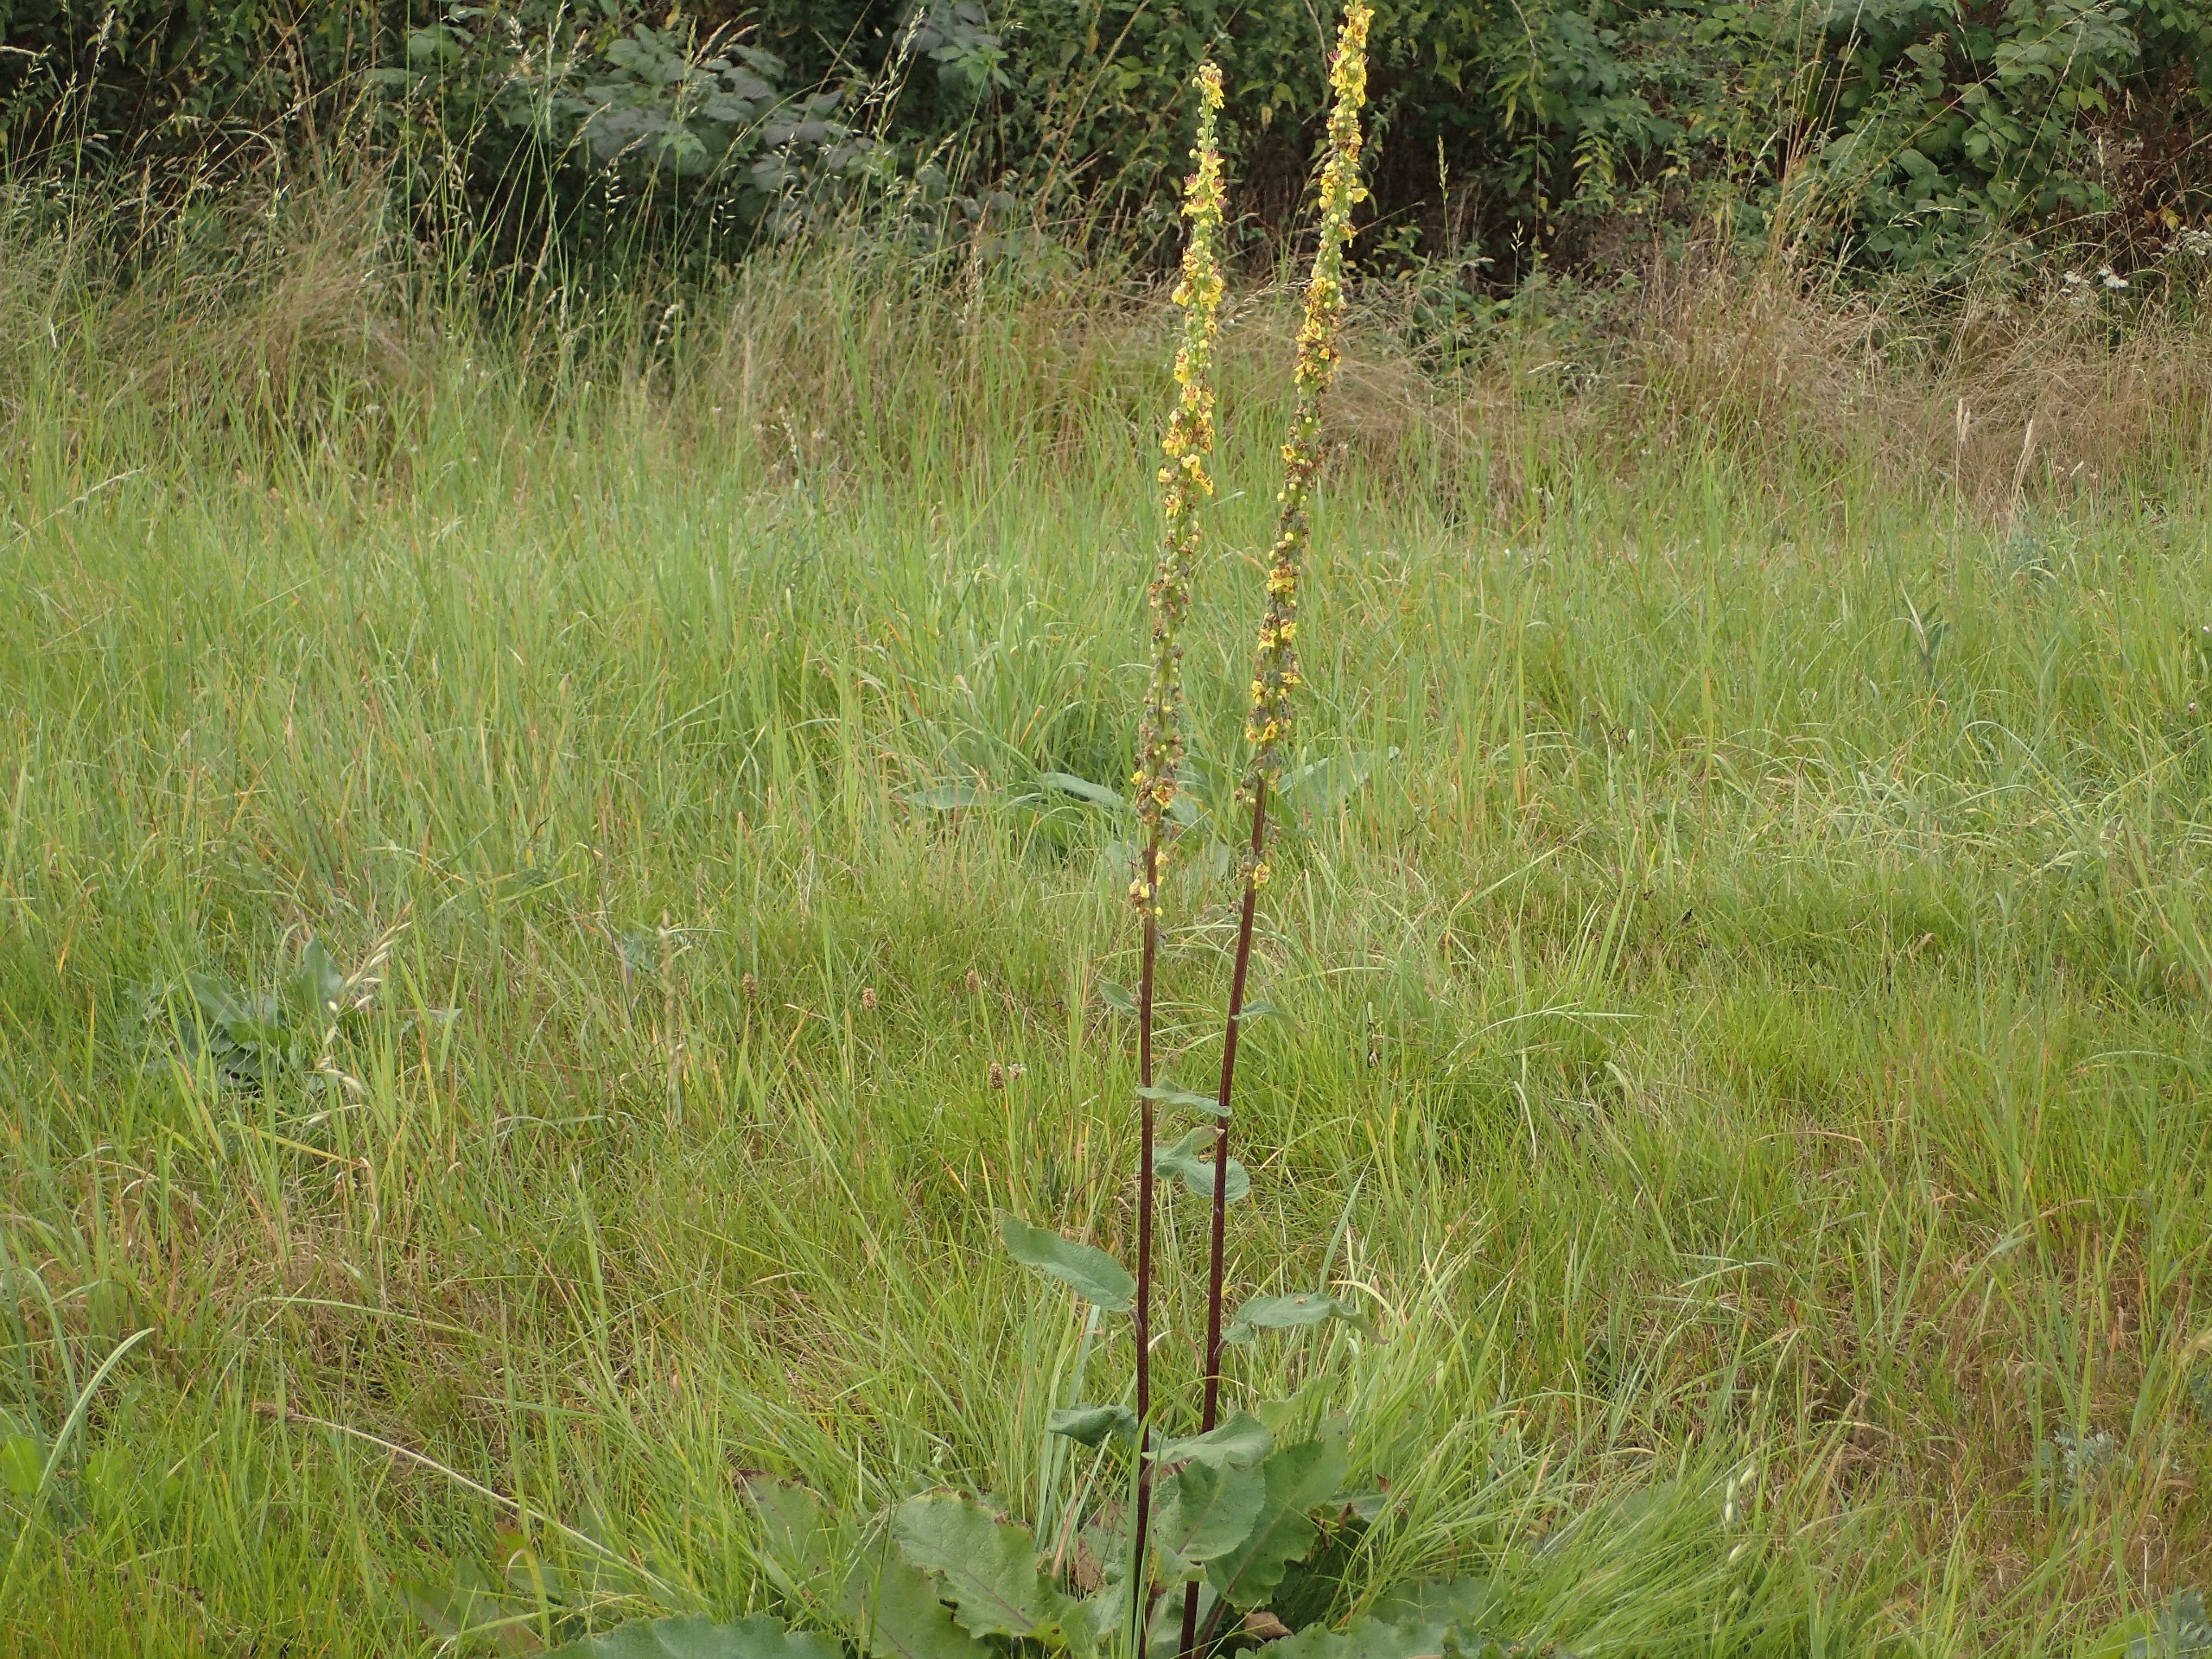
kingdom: Plantae
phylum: Tracheophyta
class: Magnoliopsida
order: Lamiales
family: Scrophulariaceae
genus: Verbascum
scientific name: Verbascum nigrum
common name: Mørk kongelys
